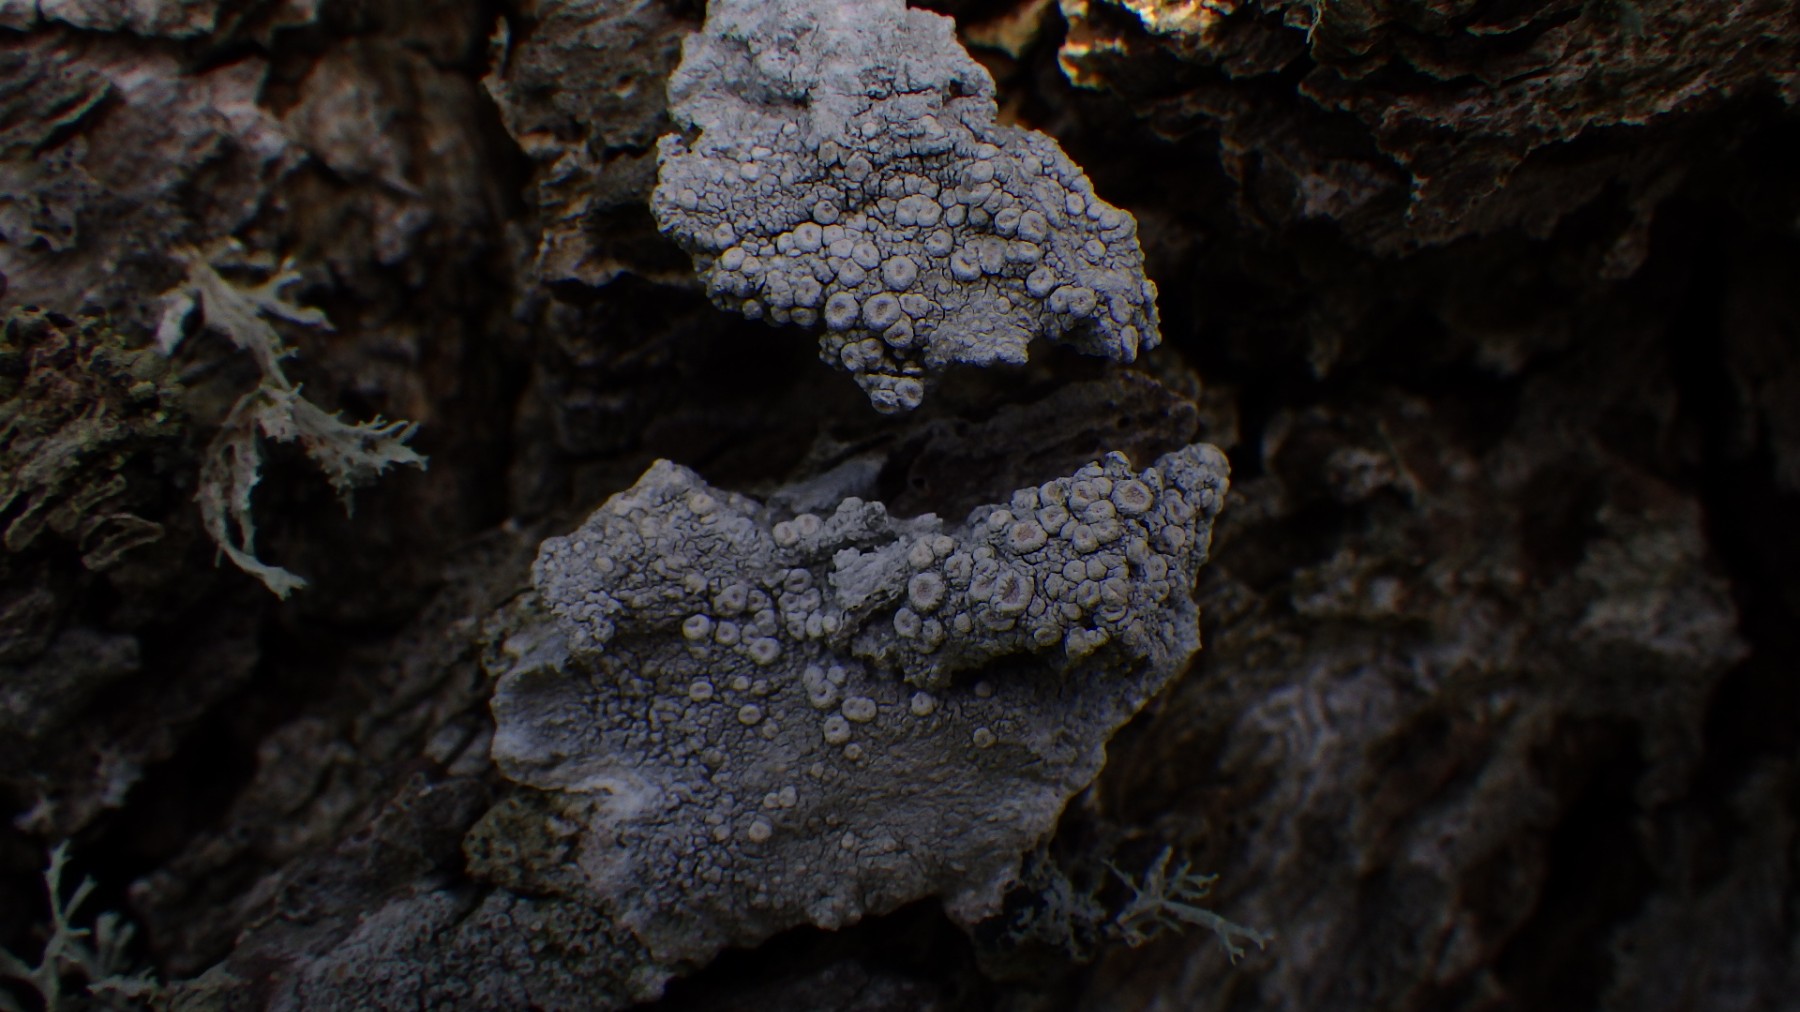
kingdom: Fungi
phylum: Ascomycota
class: Lecanoromycetes
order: Pertusariales
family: Ochrolechiaceae
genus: Ochrolechia
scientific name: Ochrolechia parella
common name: almindelig blegskivelav
